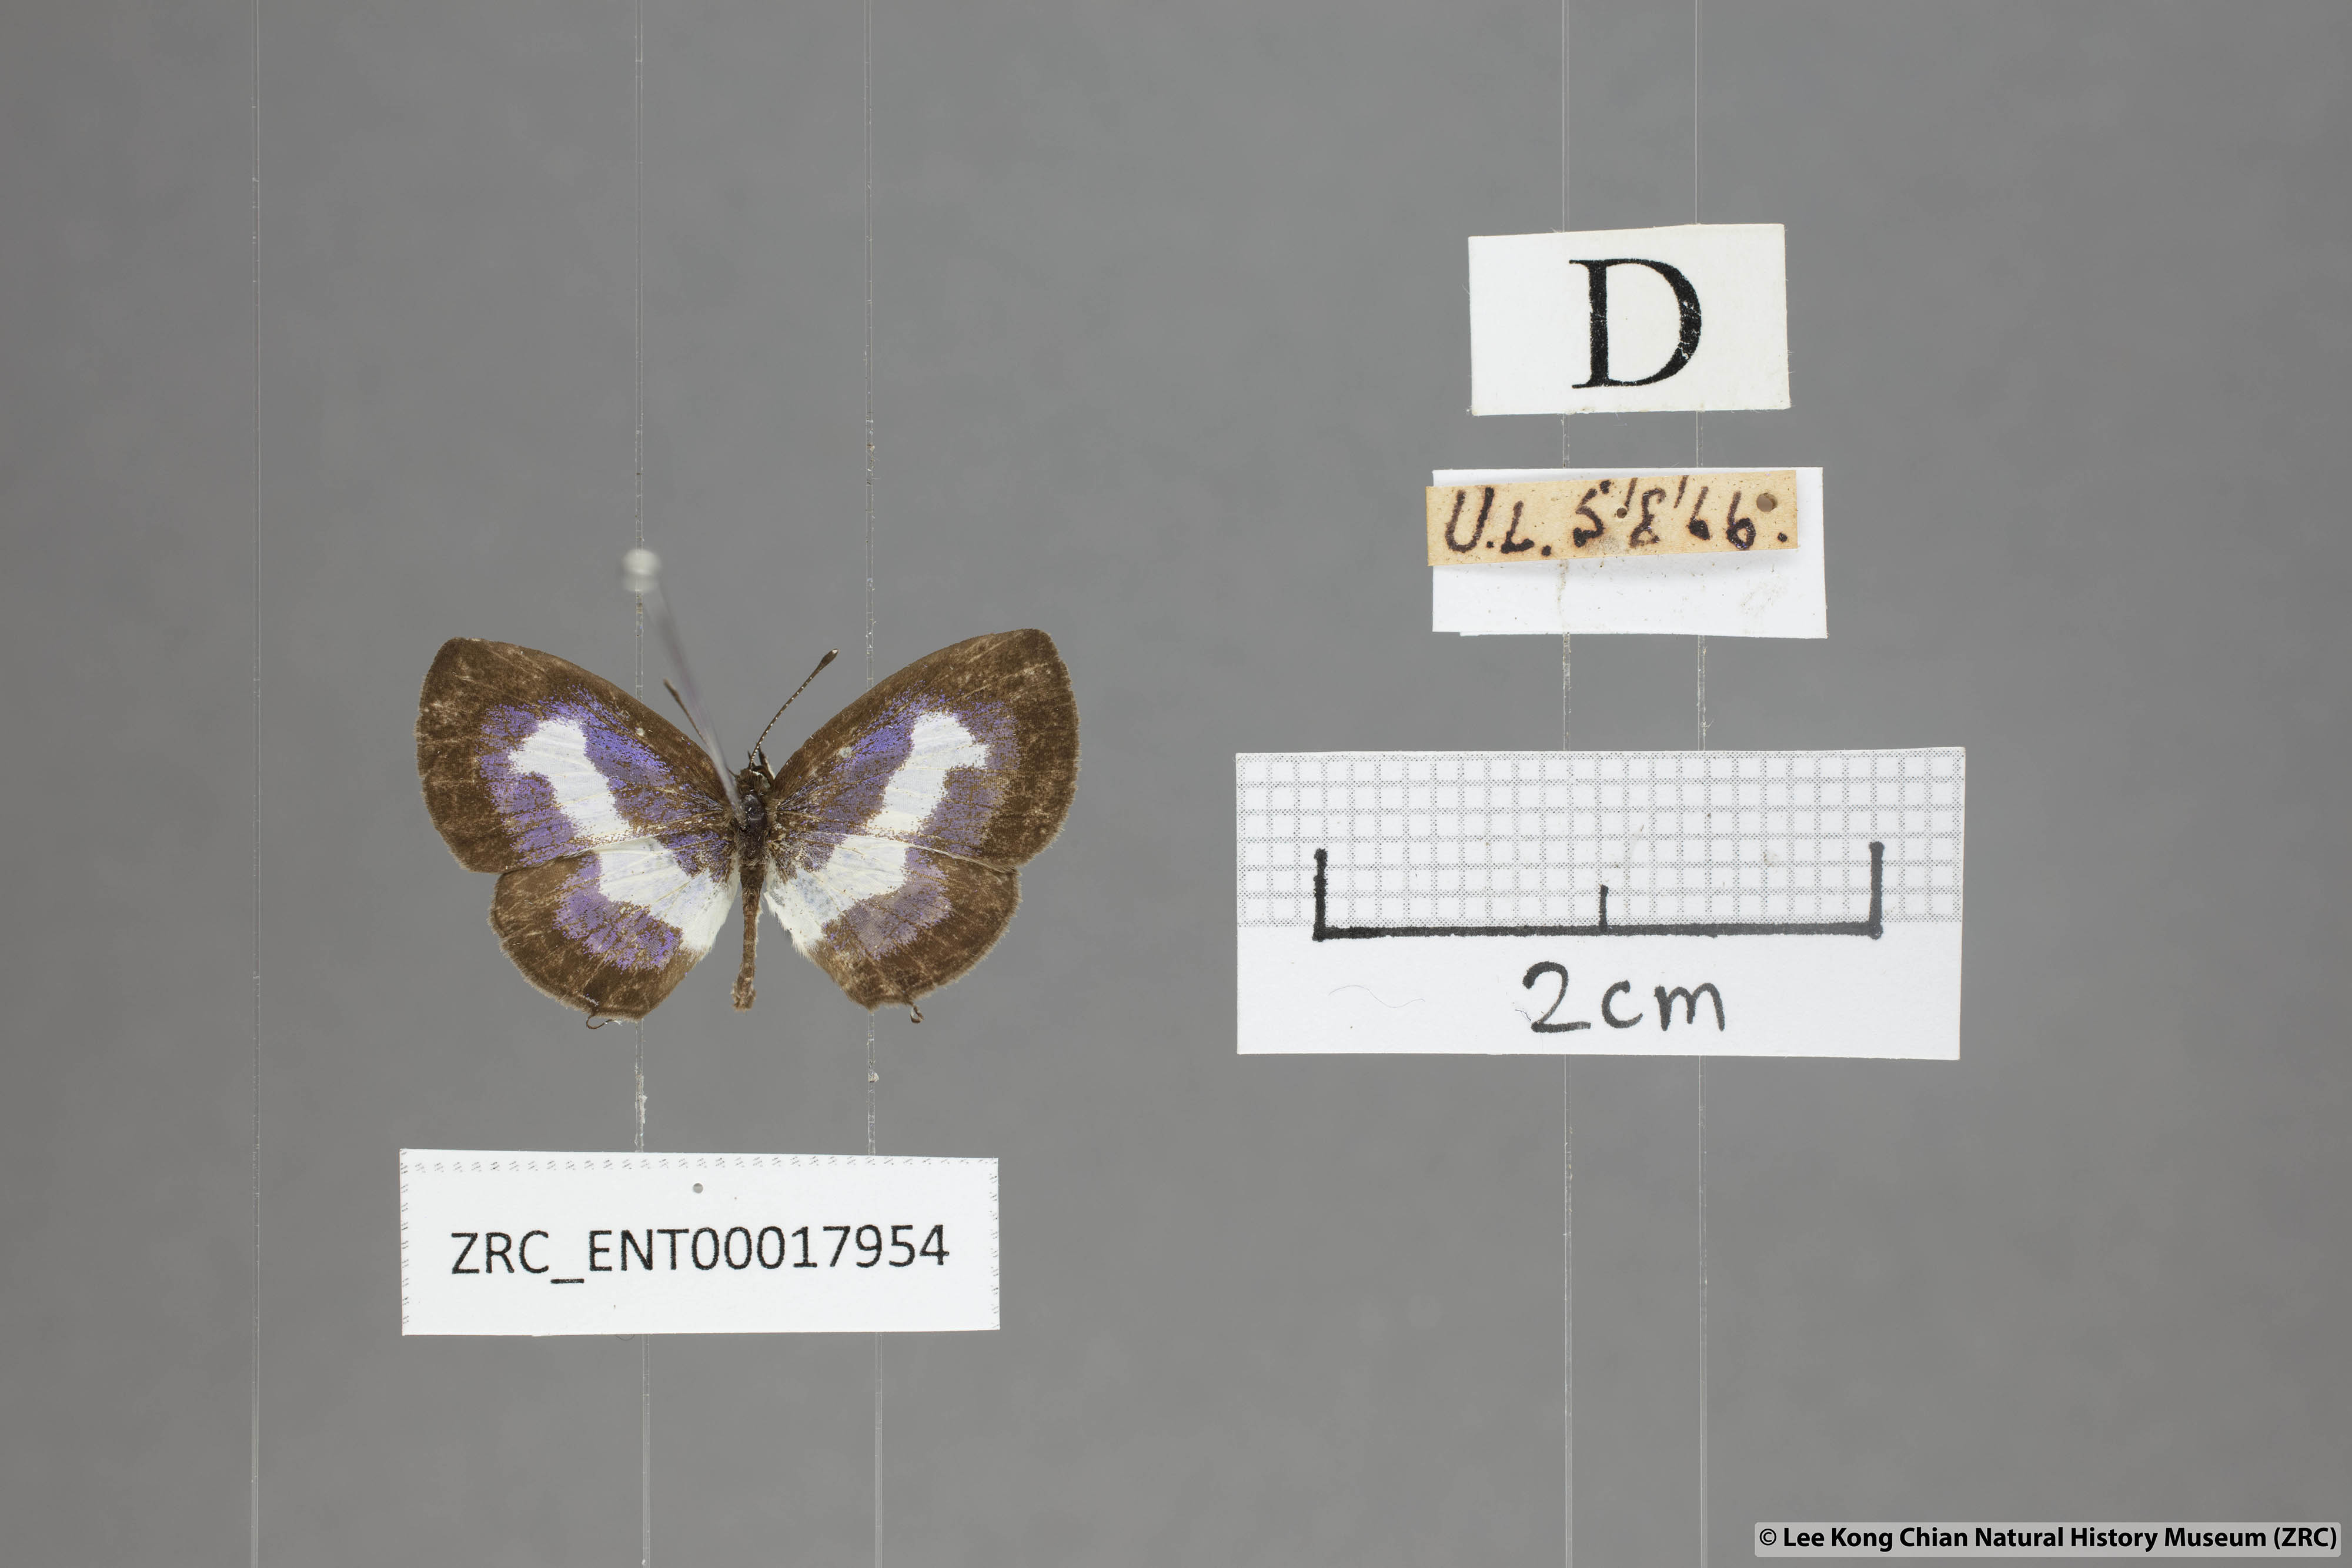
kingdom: Animalia
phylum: Arthropoda
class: Insecta
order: Lepidoptera
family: Lycaenidae
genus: Discolampa
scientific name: Discolampa ethion
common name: Banded blue pierrot
